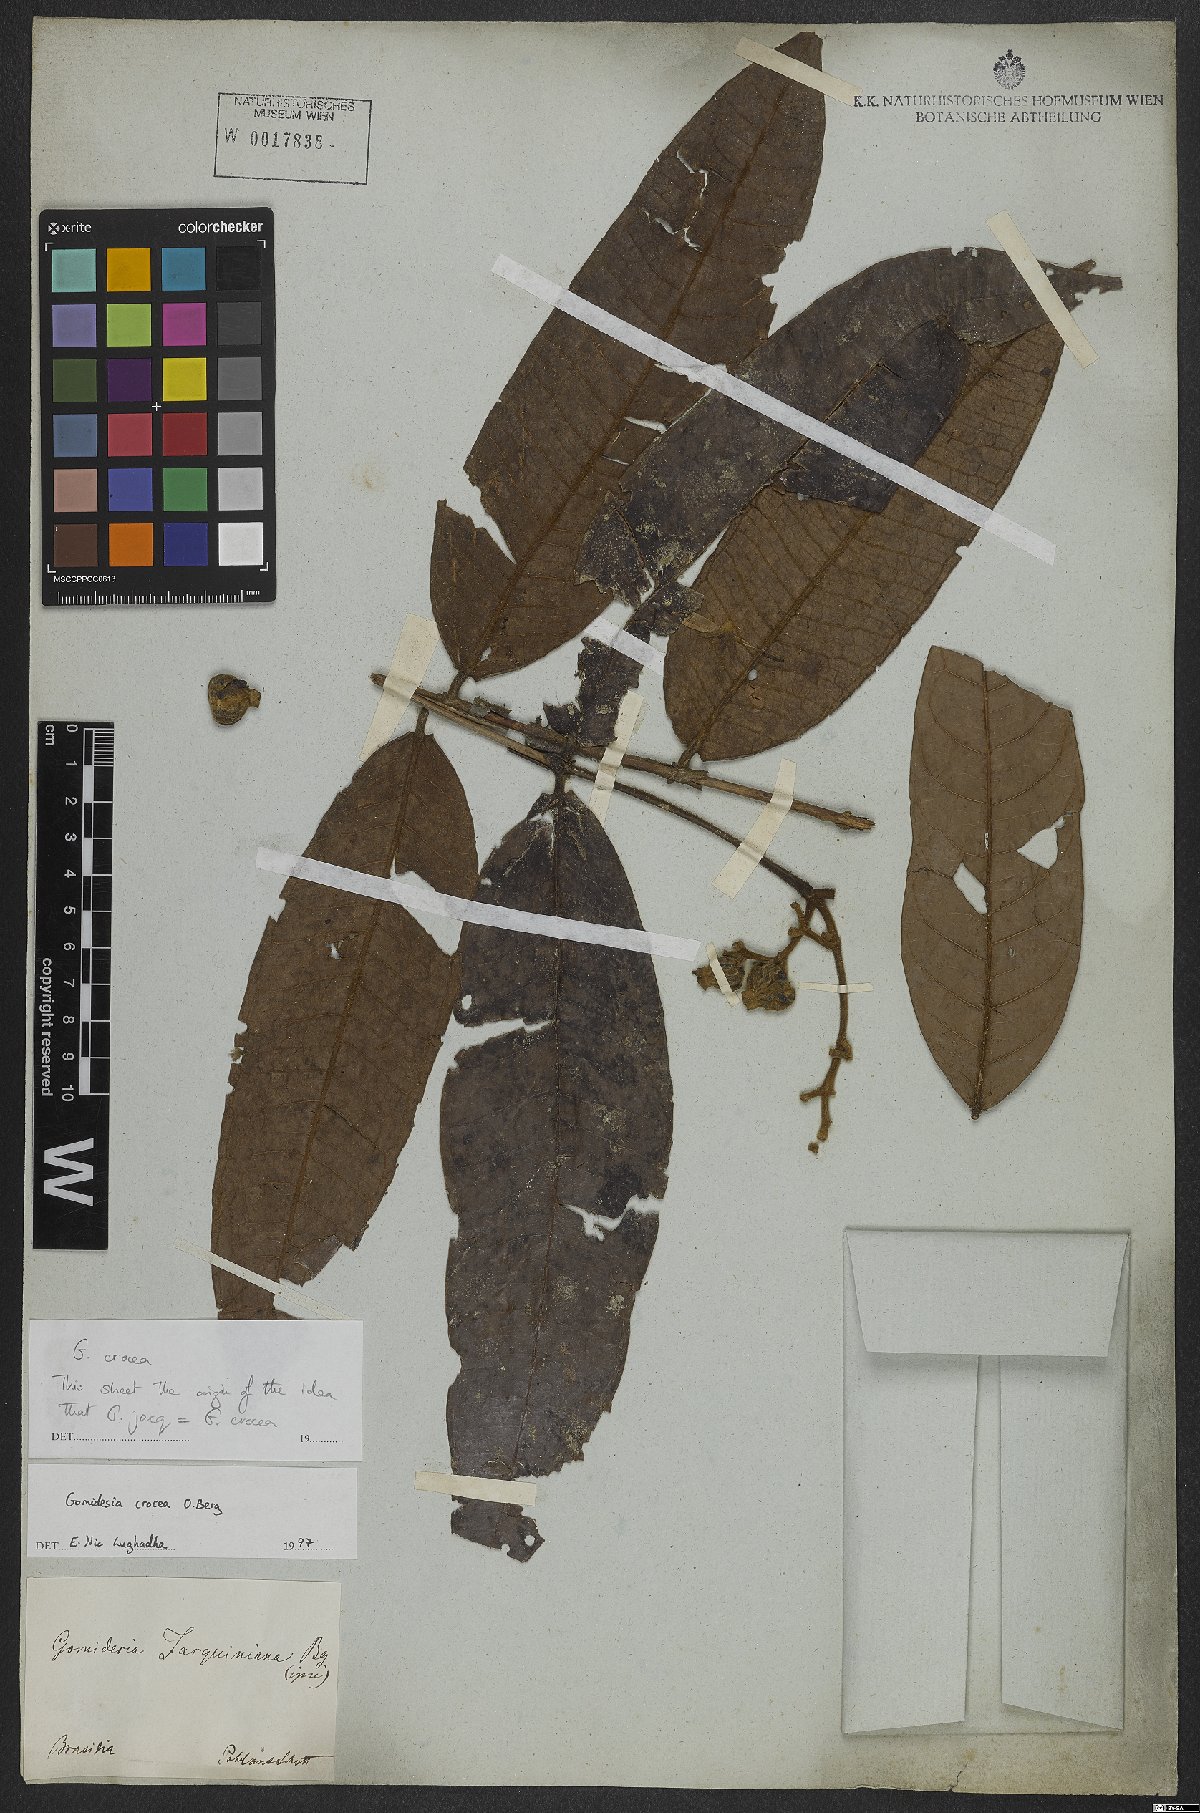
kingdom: Plantae
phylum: Tracheophyta
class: Magnoliopsida
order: Myrtales
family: Myrtaceae
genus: Myrcia
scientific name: Myrcia grandifolia
